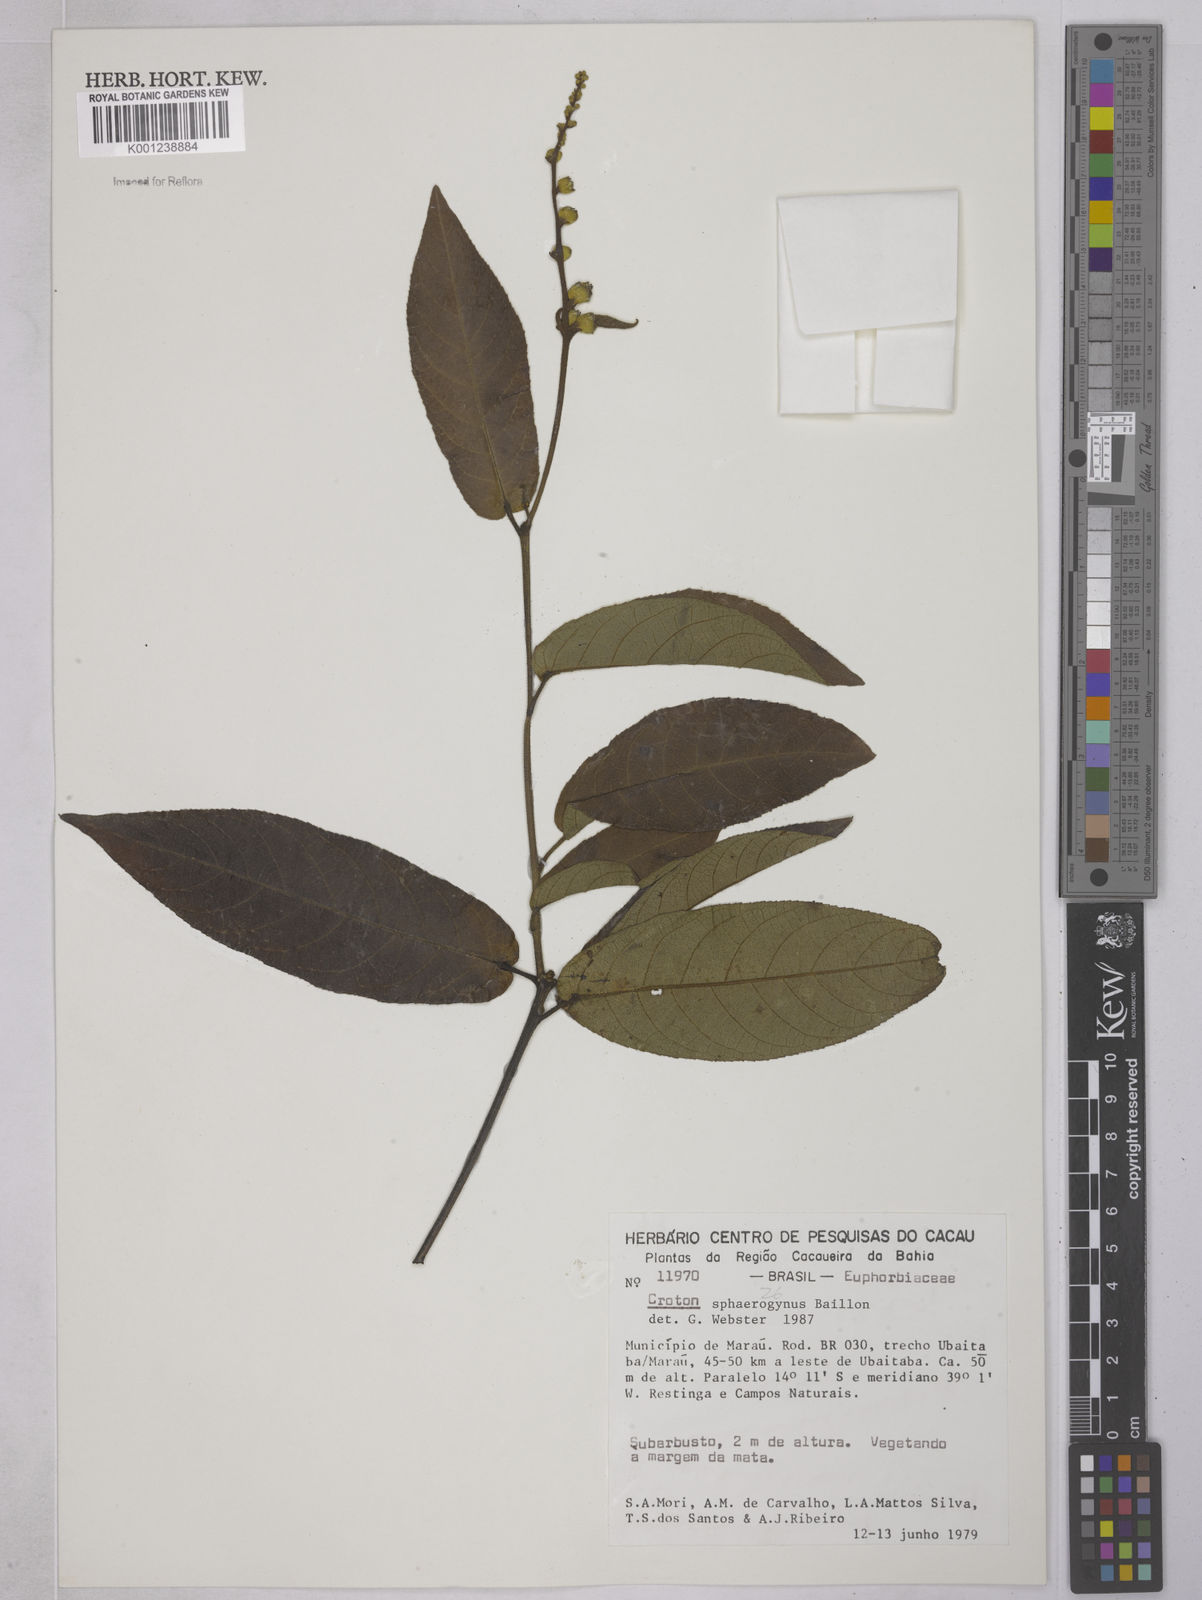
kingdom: Plantae
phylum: Tracheophyta
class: Magnoliopsida
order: Malpighiales
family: Euphorbiaceae
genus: Croton
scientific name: Croton sphaerogynus
